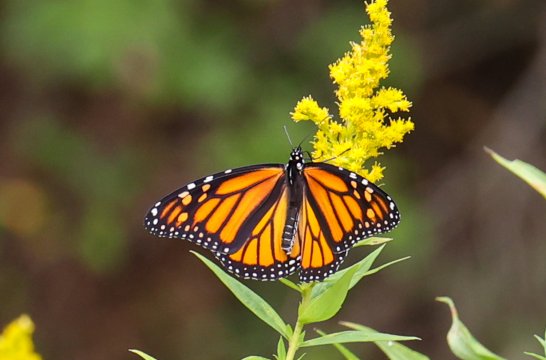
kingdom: Animalia
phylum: Arthropoda
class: Insecta
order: Lepidoptera
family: Nymphalidae
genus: Danaus
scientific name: Danaus plexippus
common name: Monarch
